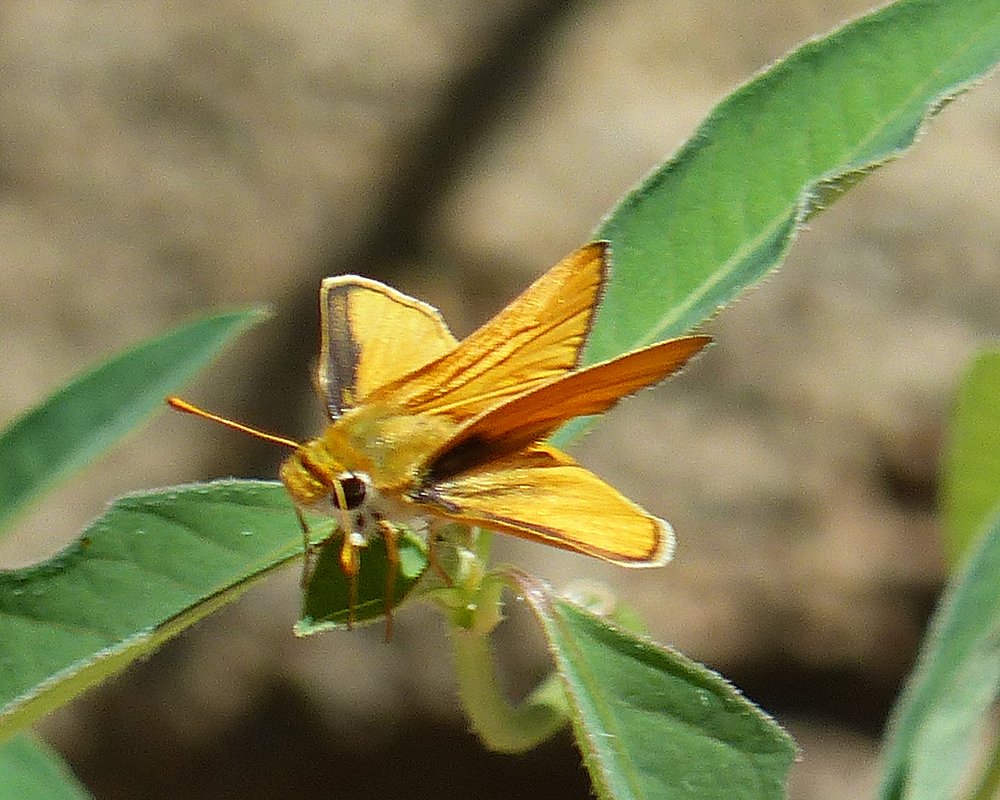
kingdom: Animalia
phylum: Arthropoda
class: Insecta
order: Lepidoptera
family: Hesperiidae
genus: Copaeodes
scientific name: Copaeodes aurantiaca
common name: Orange Skipperling
